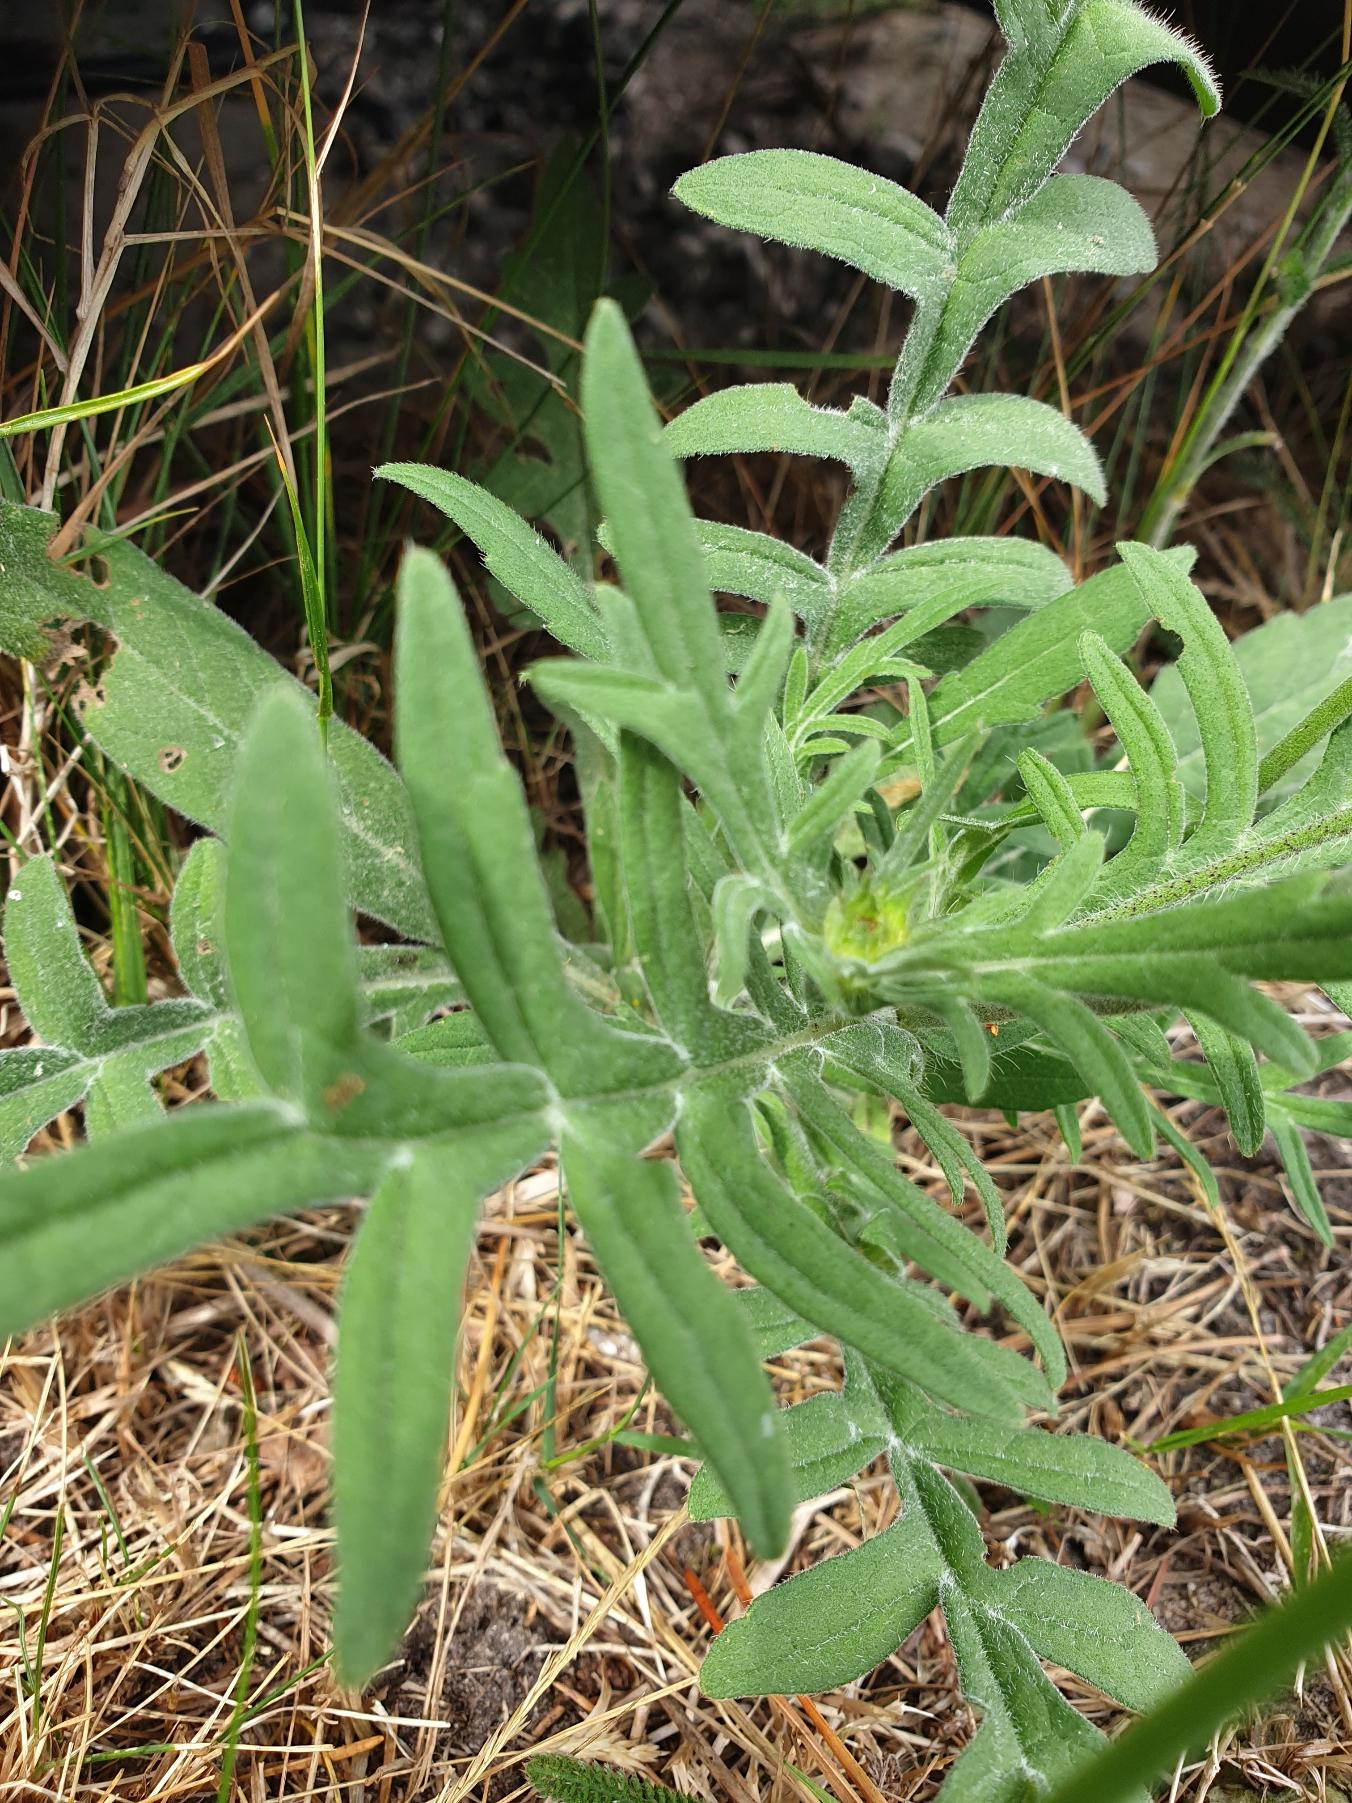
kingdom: Plantae
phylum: Tracheophyta
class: Magnoliopsida
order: Dipsacales
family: Caprifoliaceae
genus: Knautia
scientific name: Knautia arvensis
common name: Blåhat
